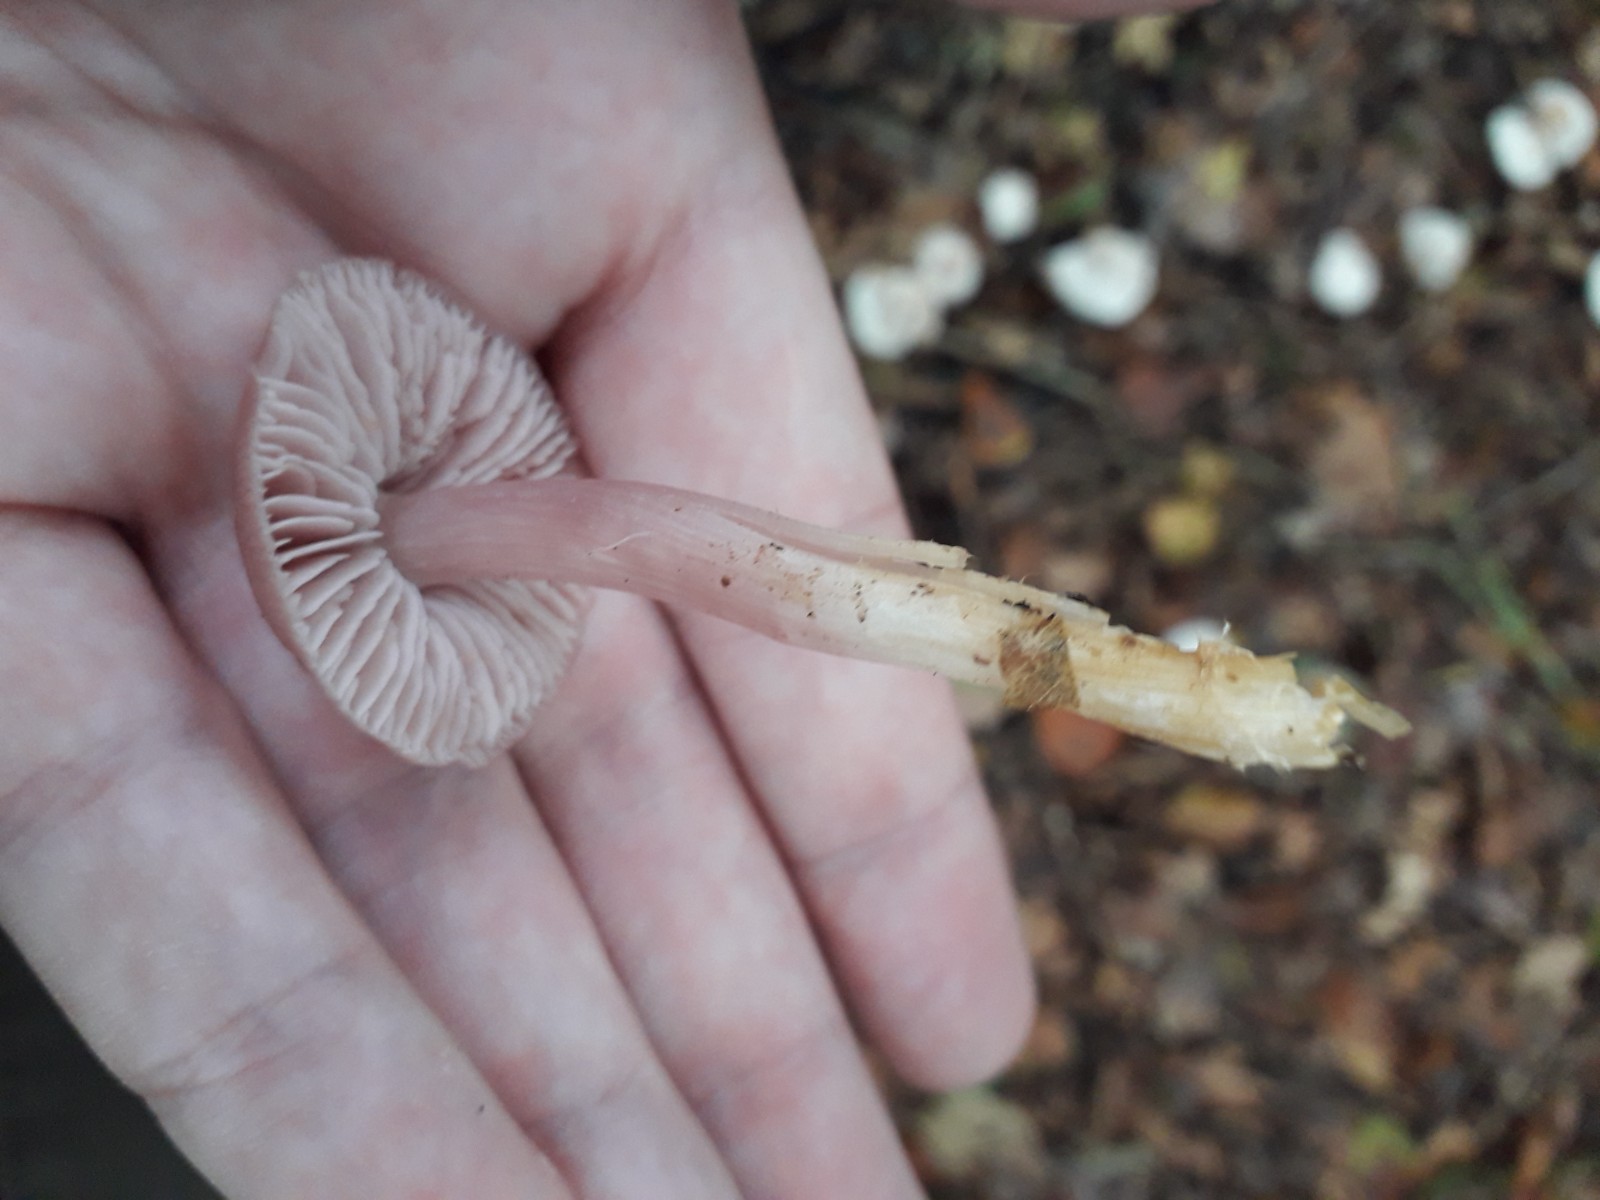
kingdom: Fungi
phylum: Basidiomycota
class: Agaricomycetes
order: Agaricales
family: Mycenaceae
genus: Mycena
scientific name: Mycena rosea
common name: rosa huesvamp
